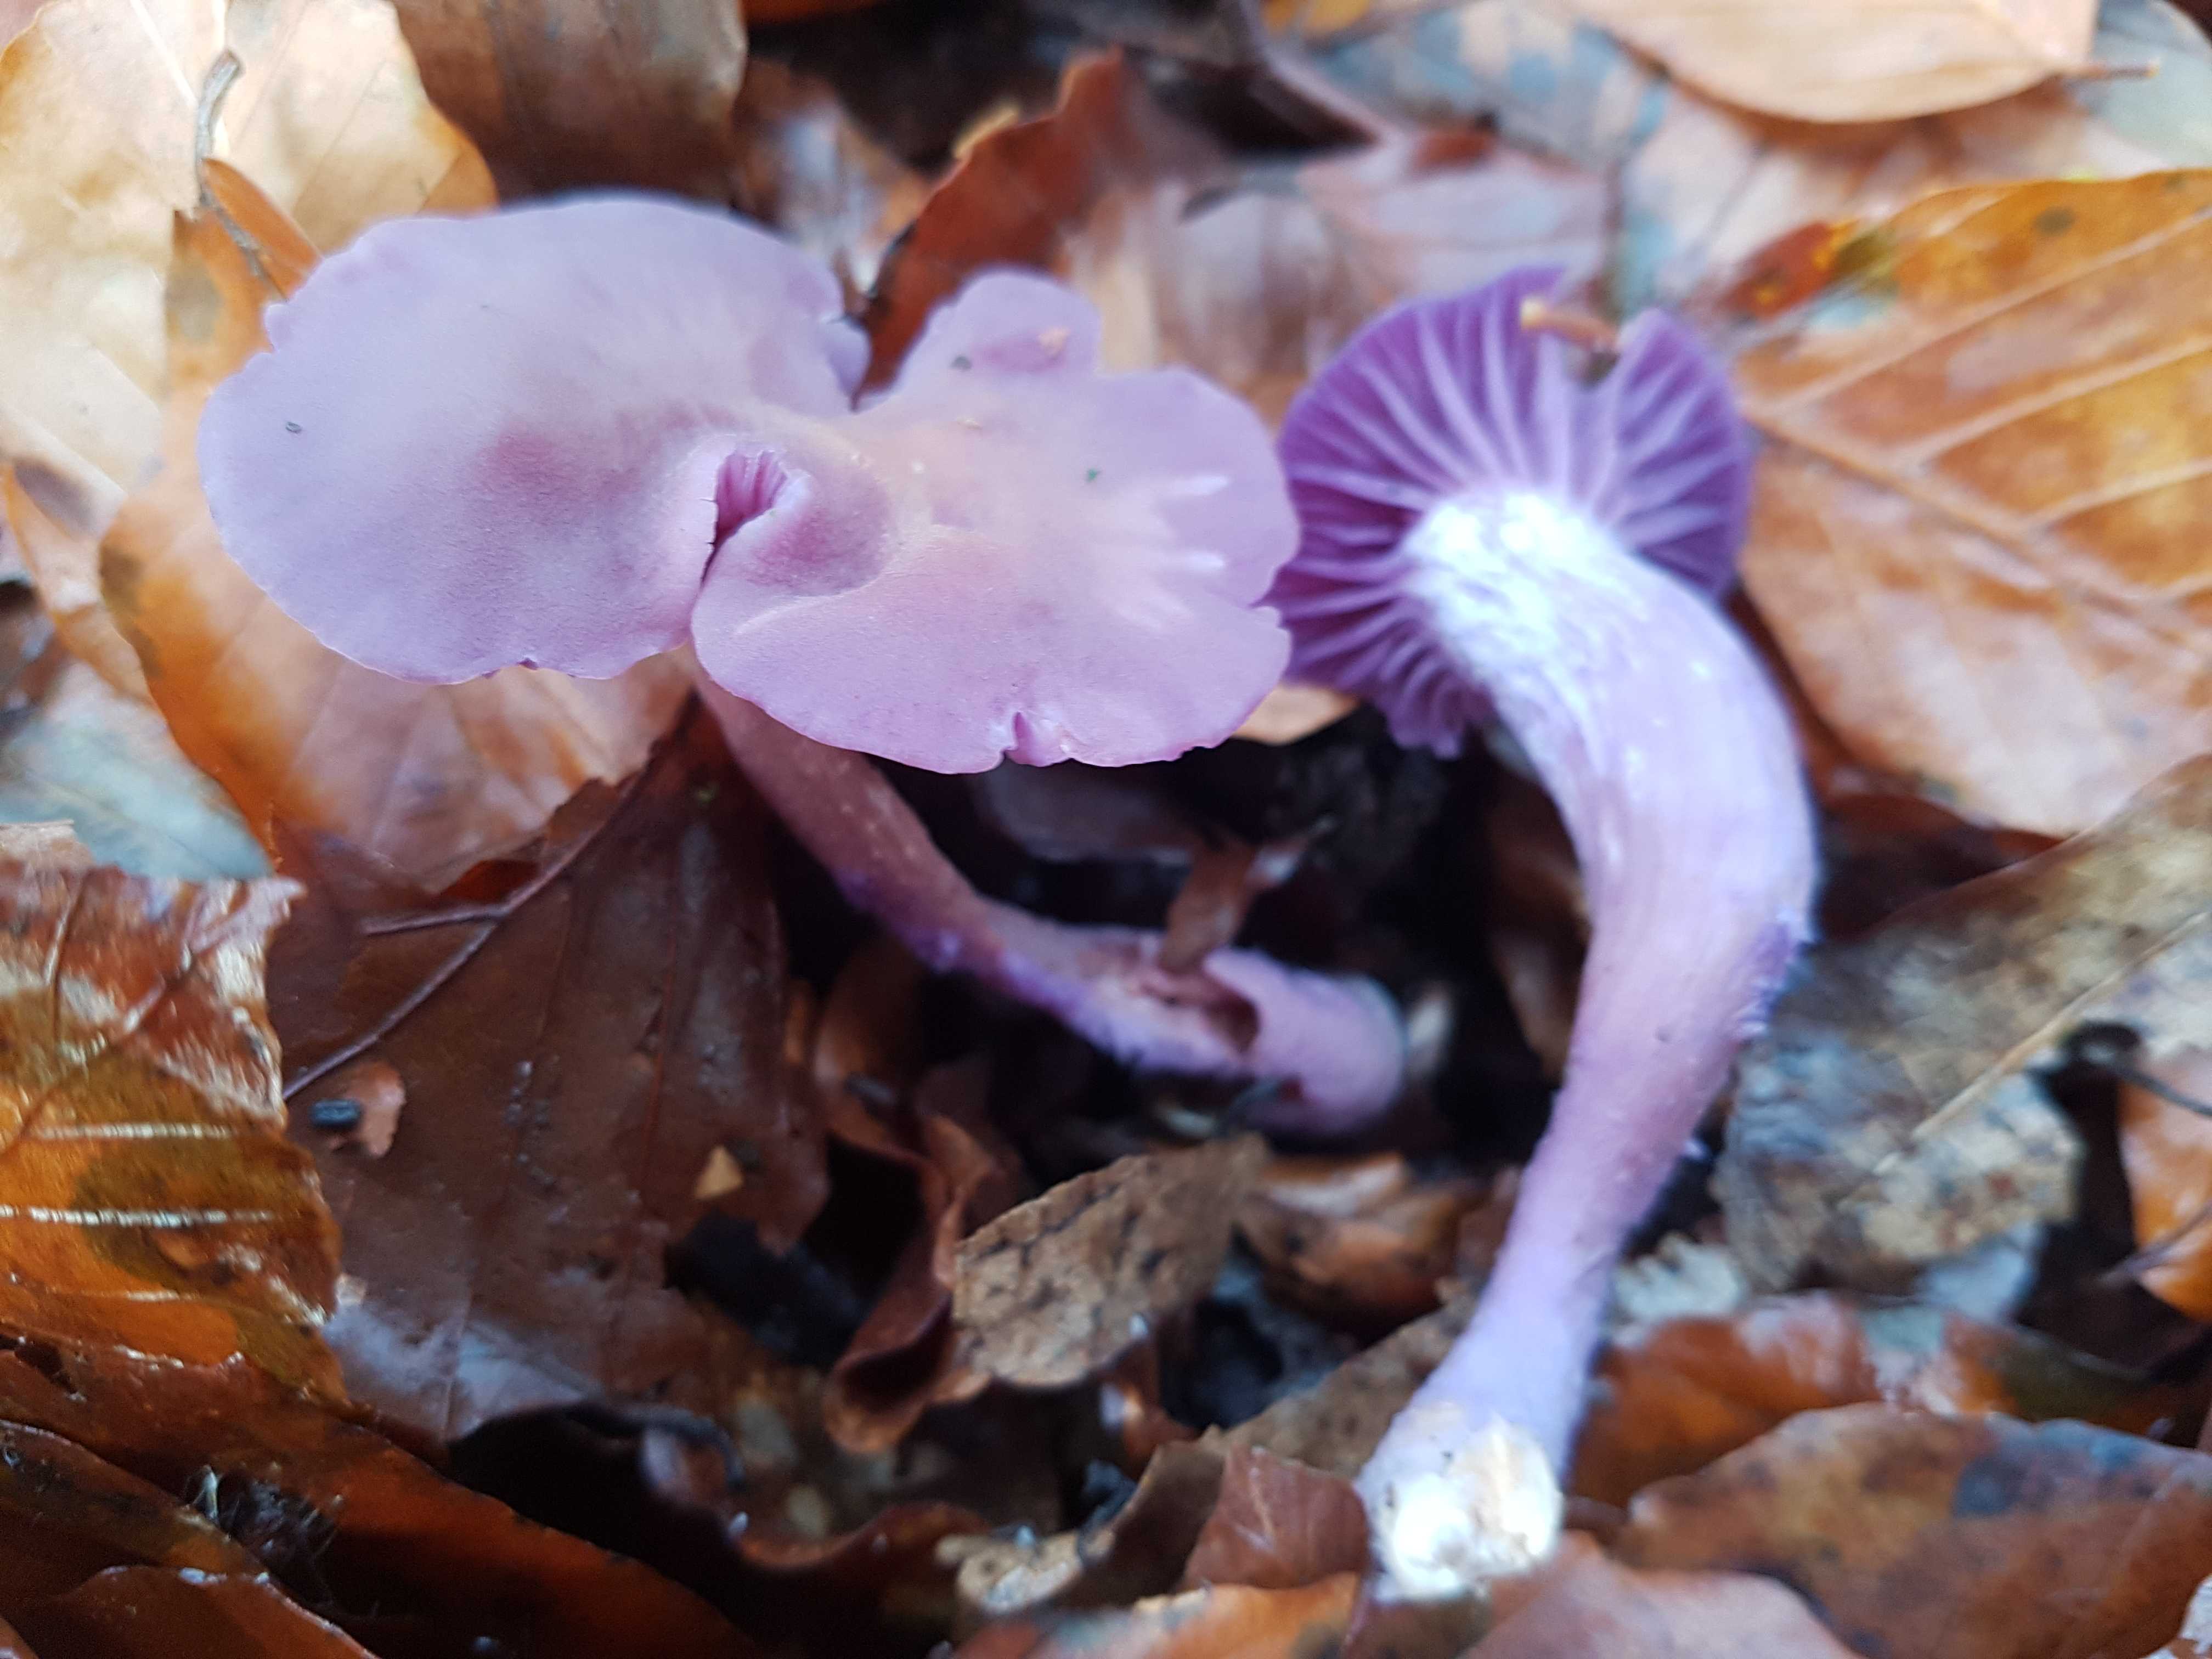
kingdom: Fungi
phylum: Basidiomycota
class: Agaricomycetes
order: Agaricales
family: Hydnangiaceae
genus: Laccaria
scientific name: Laccaria amethystina
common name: violet ametysthat
